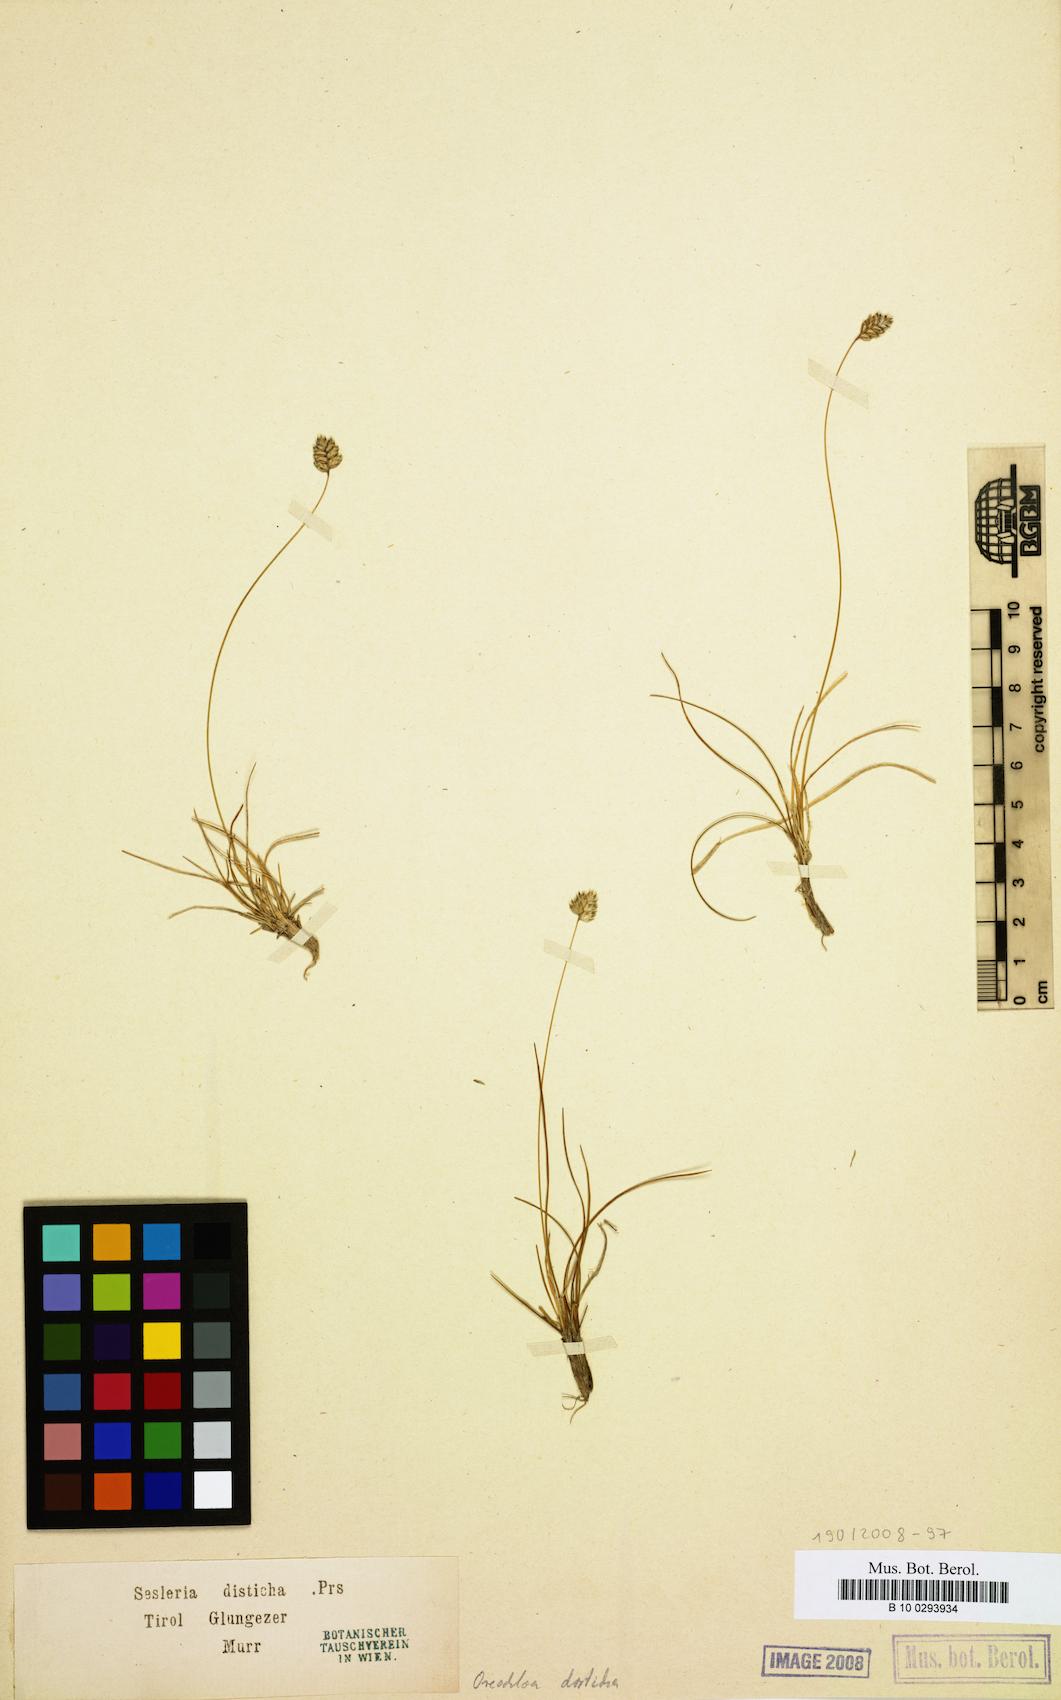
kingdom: Plantae
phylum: Tracheophyta
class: Liliopsida
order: Poales
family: Poaceae
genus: Oreochloa
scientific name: Oreochloa disticha
